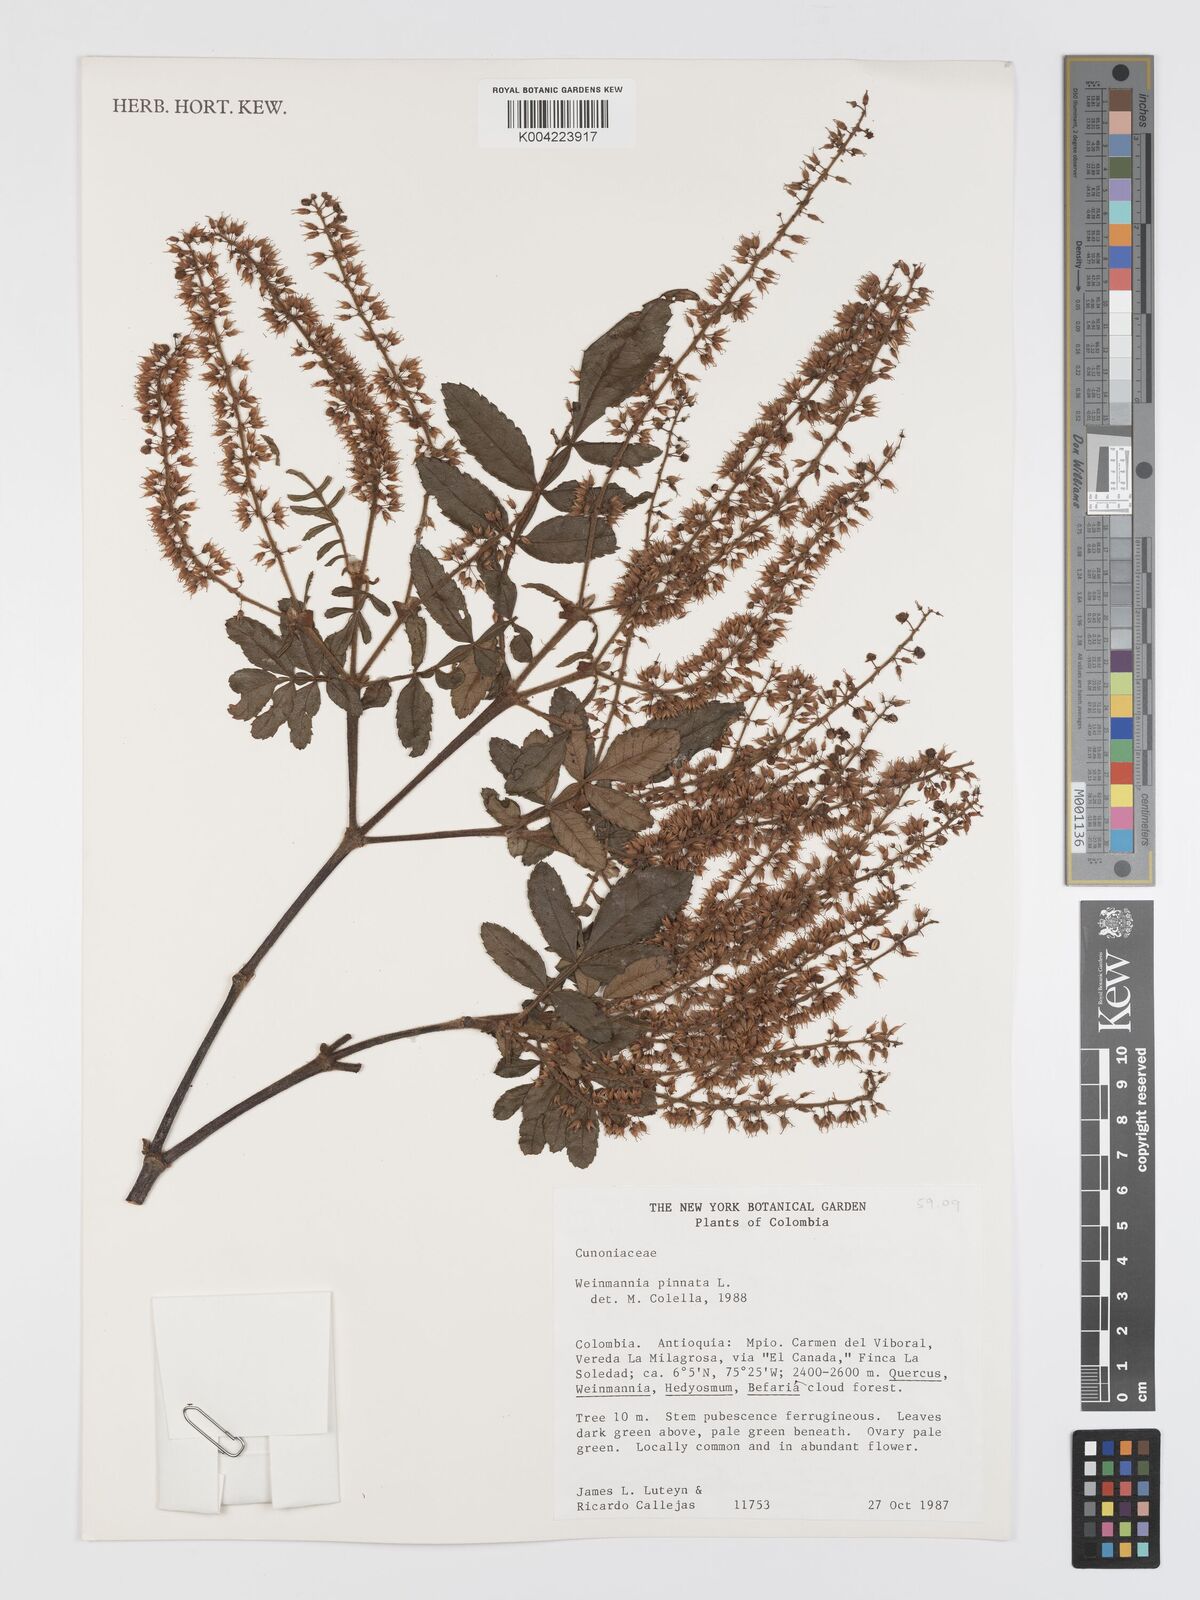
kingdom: Plantae
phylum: Tracheophyta
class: Magnoliopsida
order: Oxalidales
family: Cunoniaceae
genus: Weinmannia
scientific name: Weinmannia pinnata
